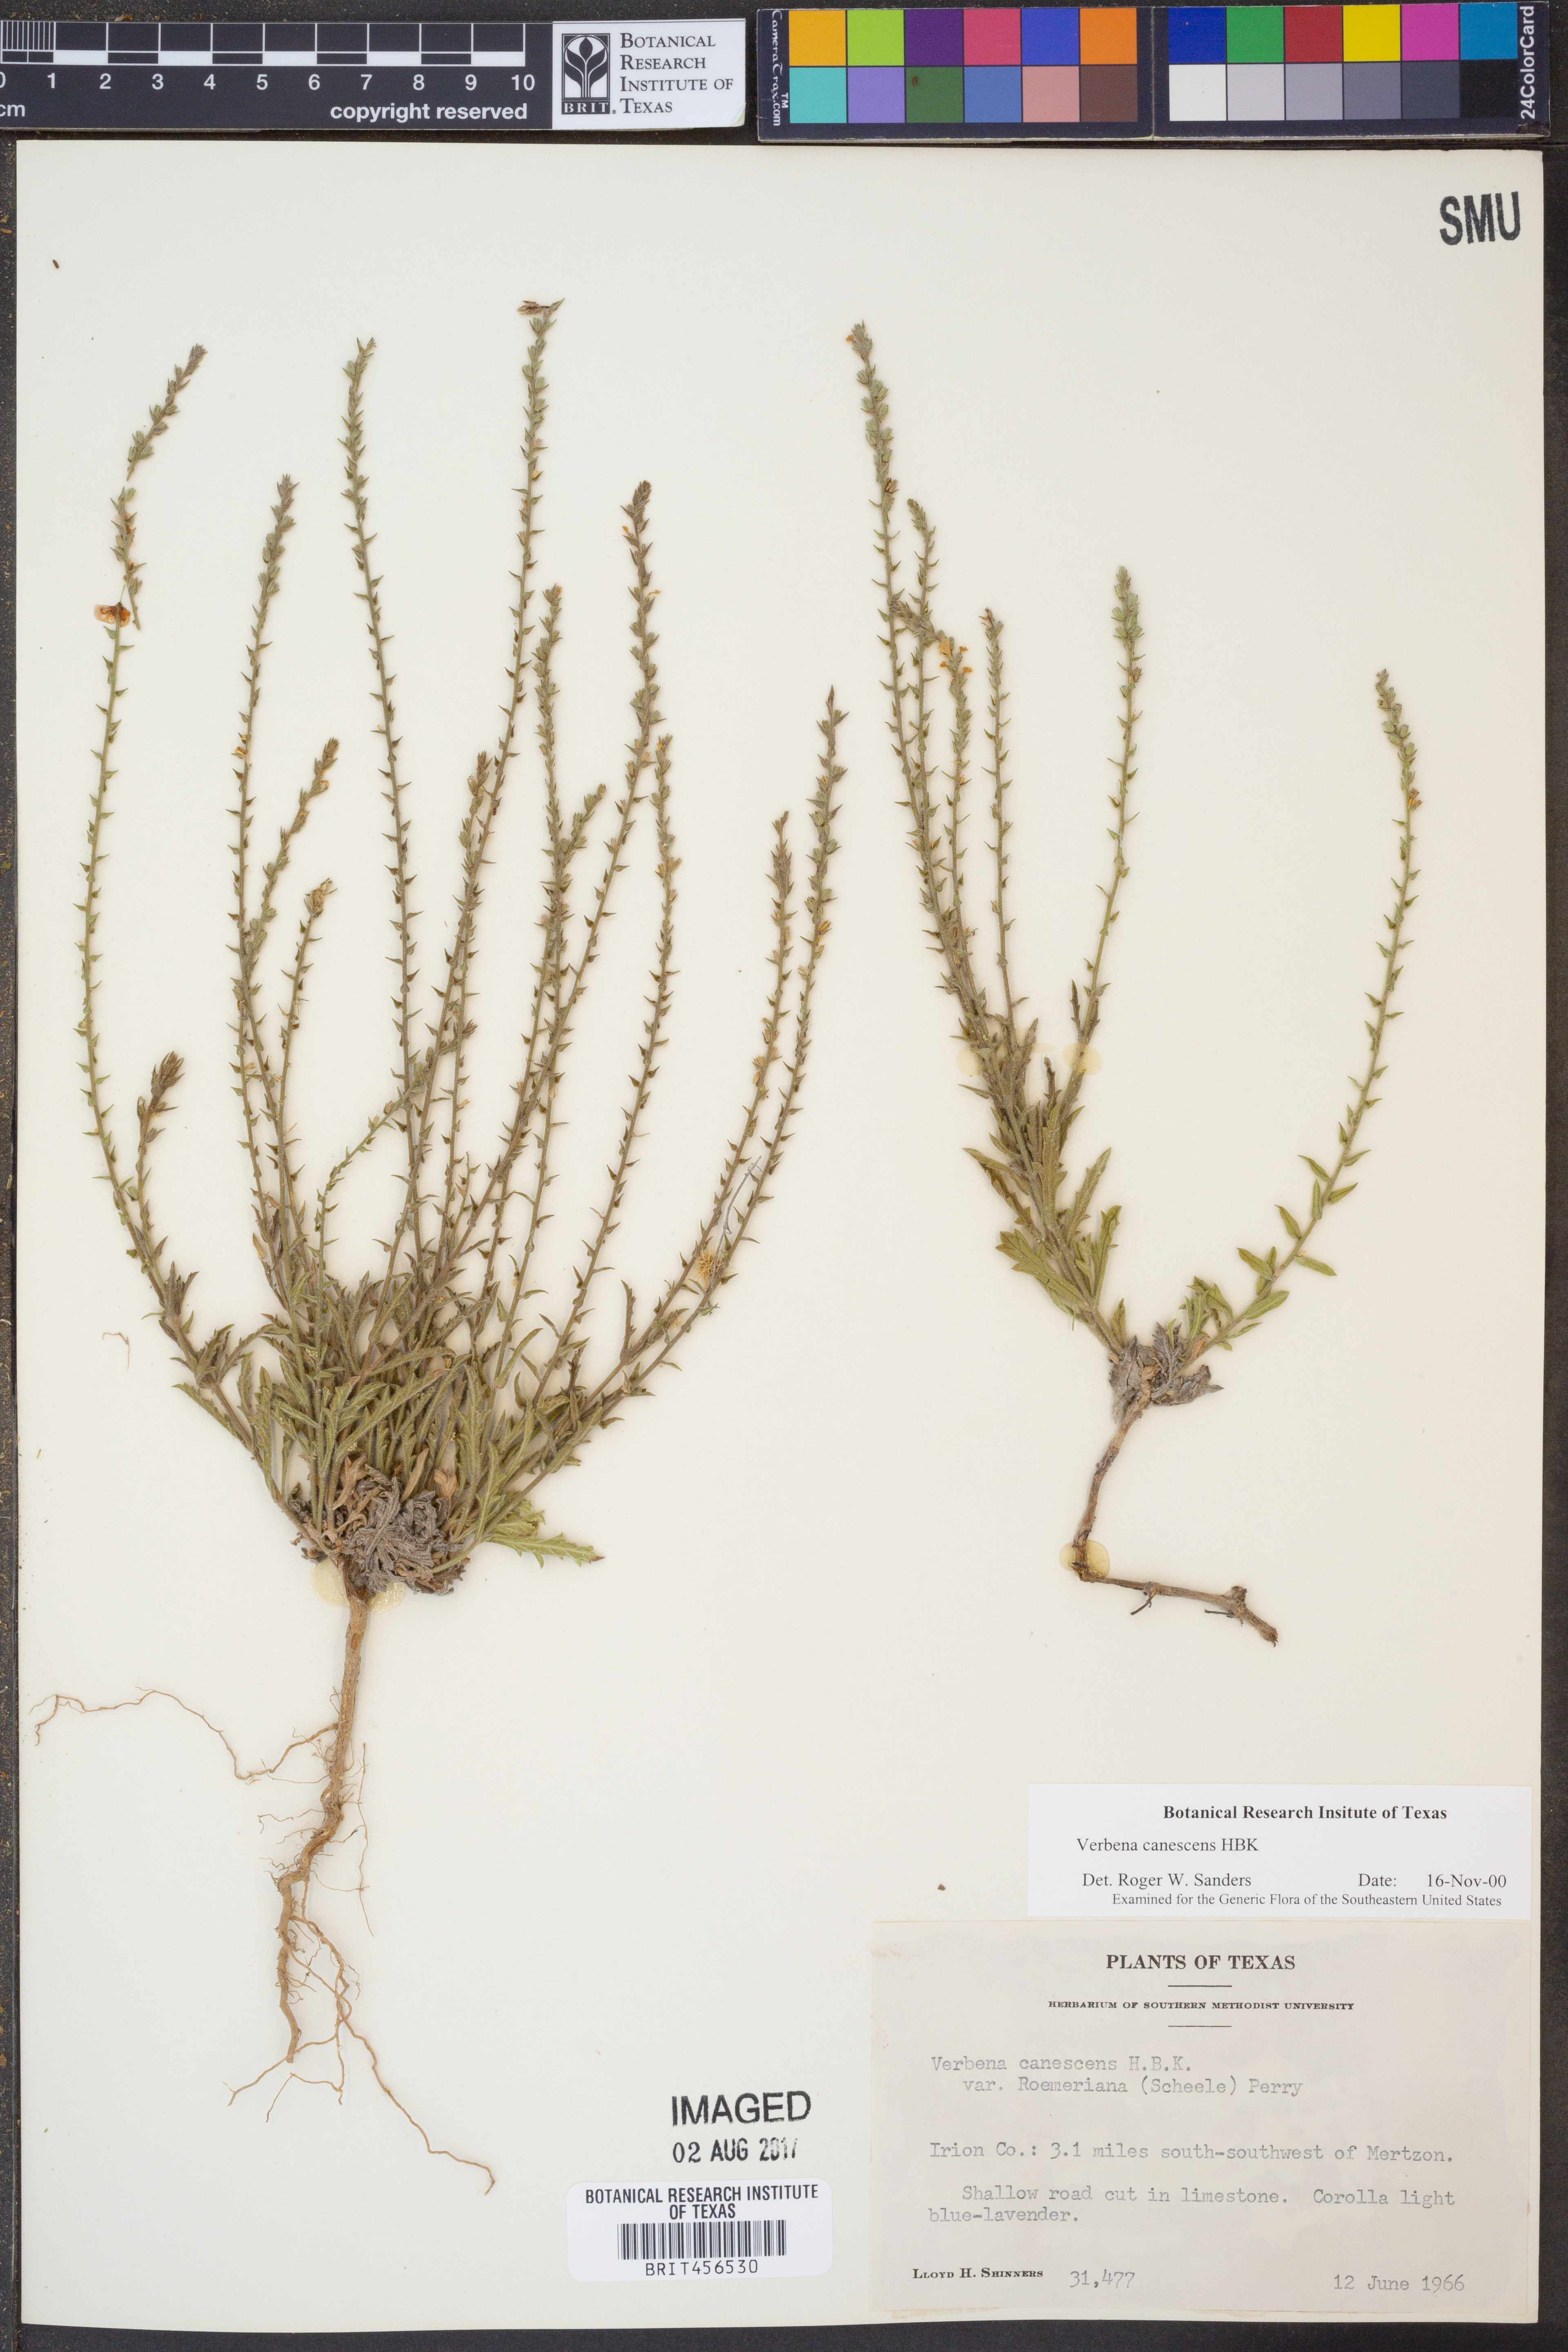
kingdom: Plantae
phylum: Tracheophyta
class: Magnoliopsida
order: Lamiales
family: Verbenaceae
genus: Verbena
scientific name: Verbena canescens
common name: Gray vervain
